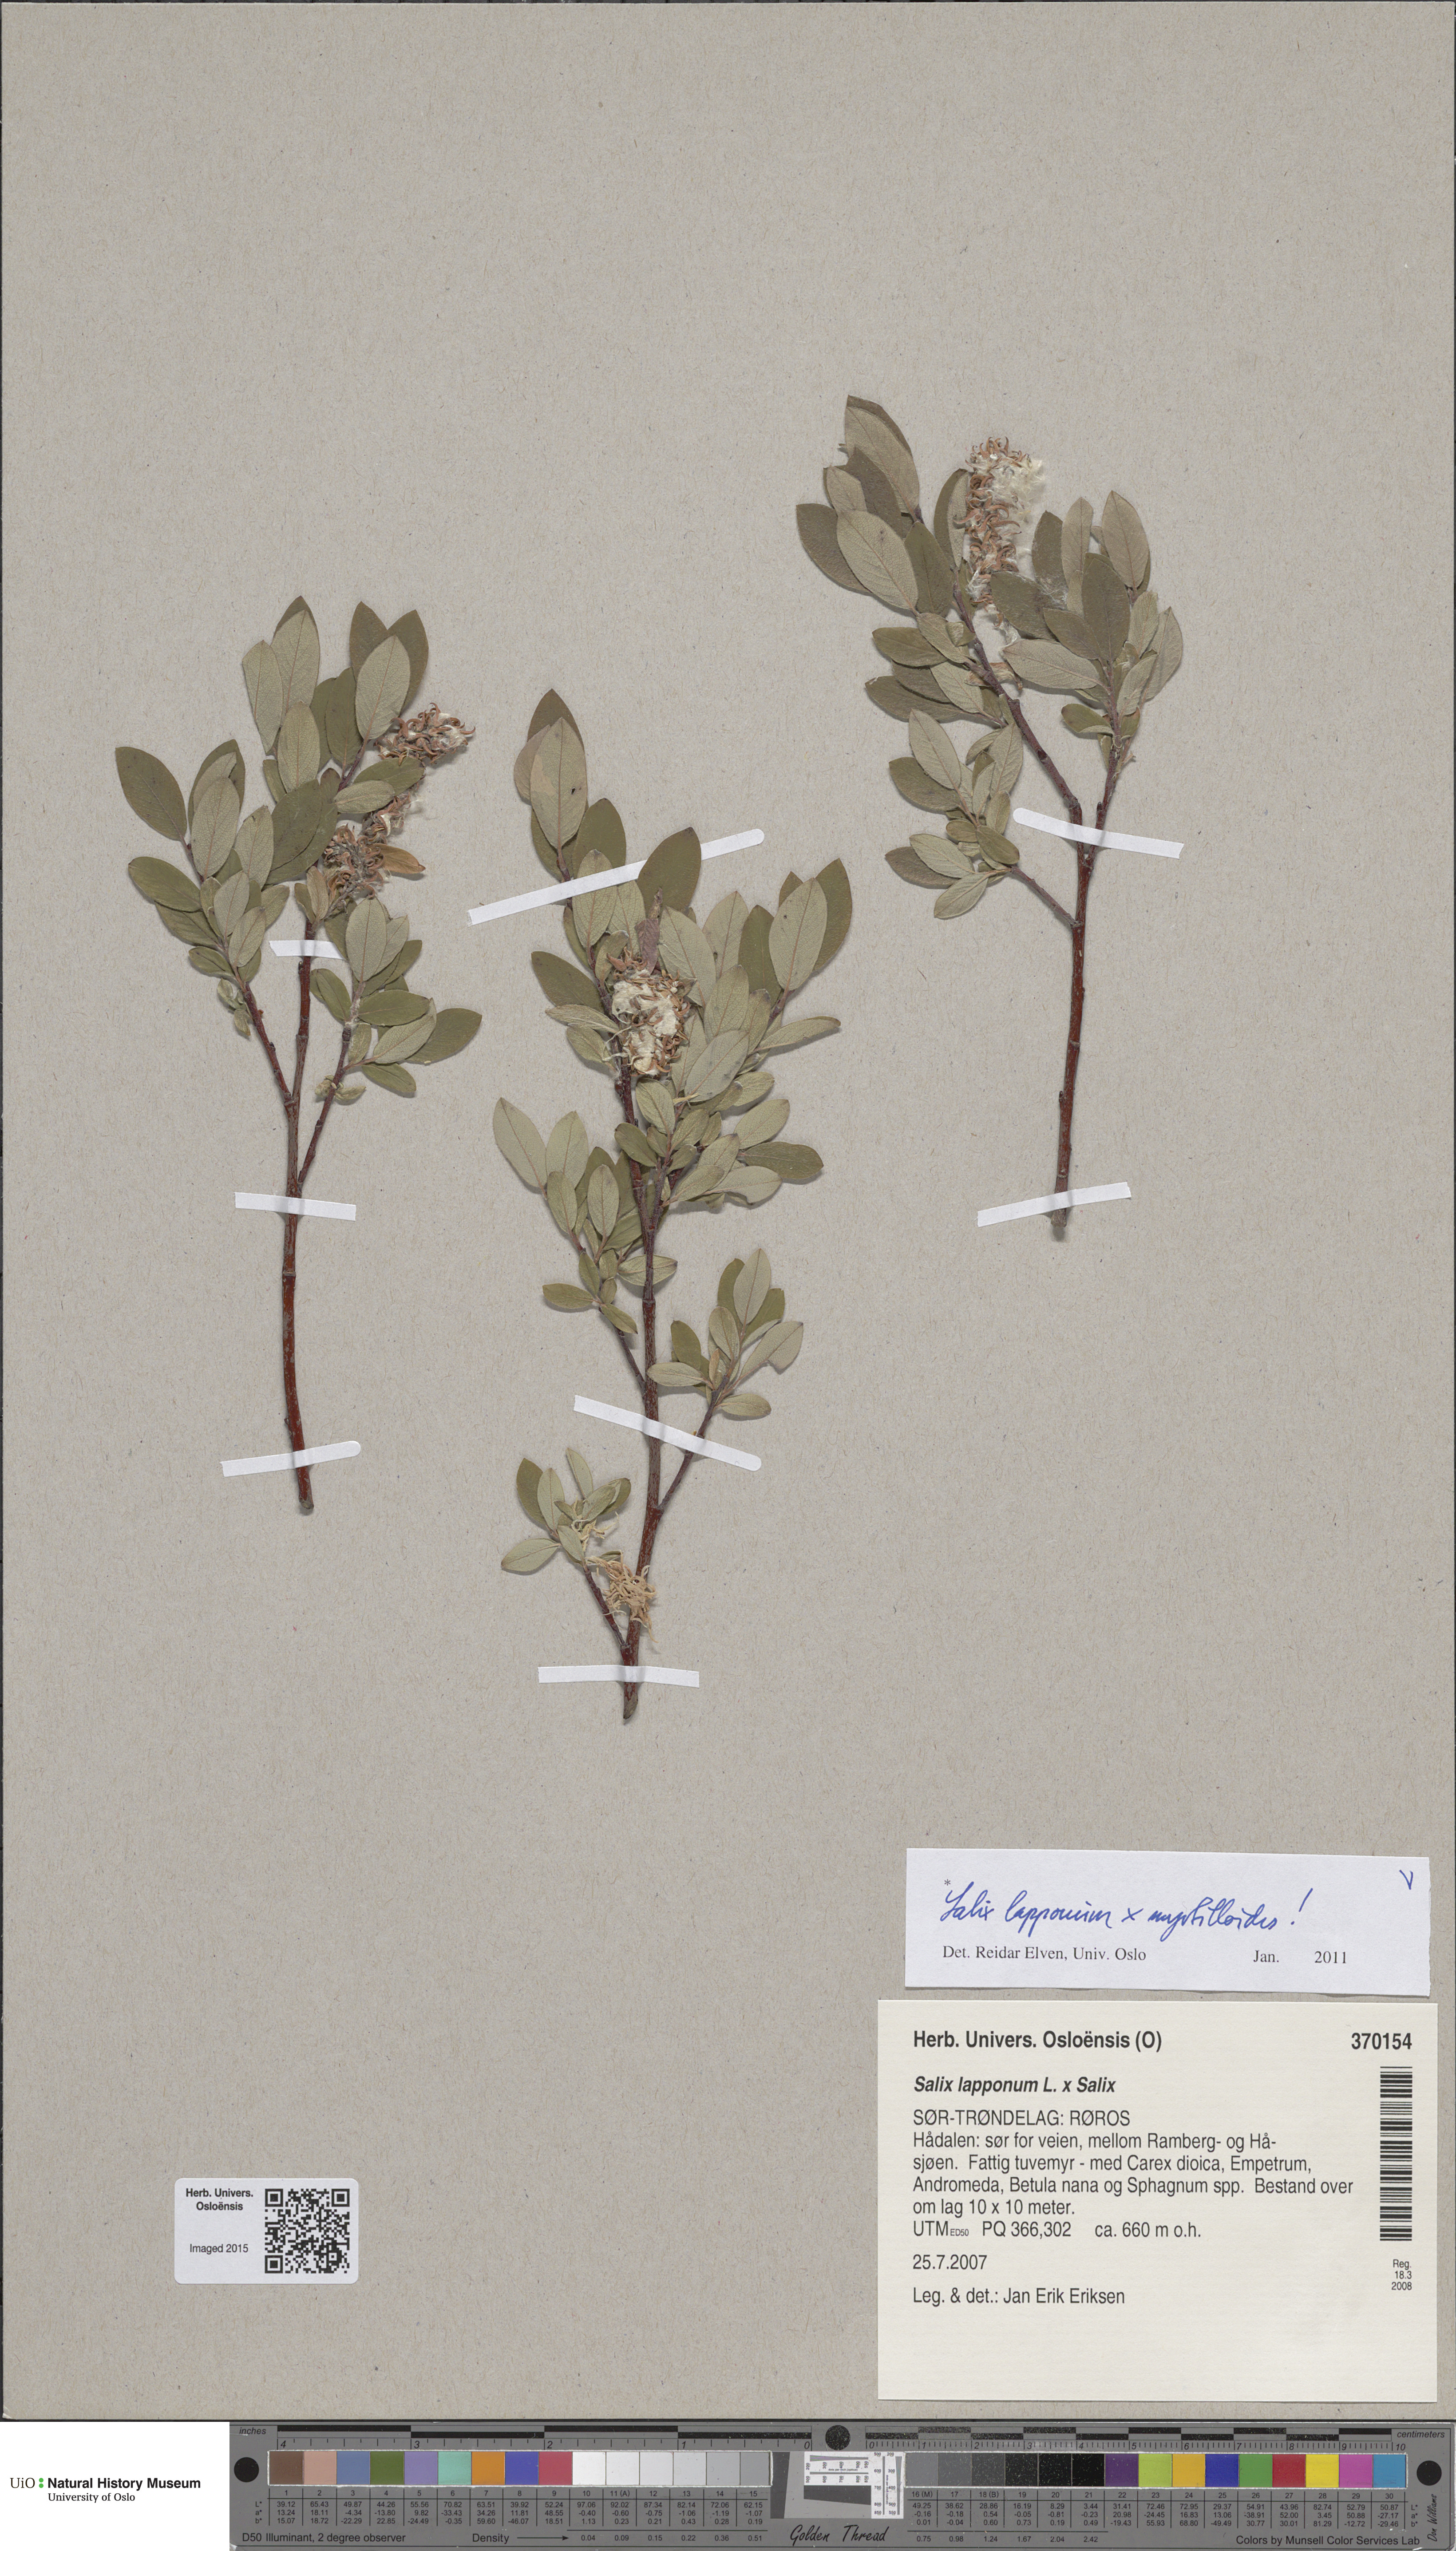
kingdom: Plantae
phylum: Tracheophyta
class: Magnoliopsida
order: Malpighiales
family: Salicaceae
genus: Salix
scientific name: Salix
